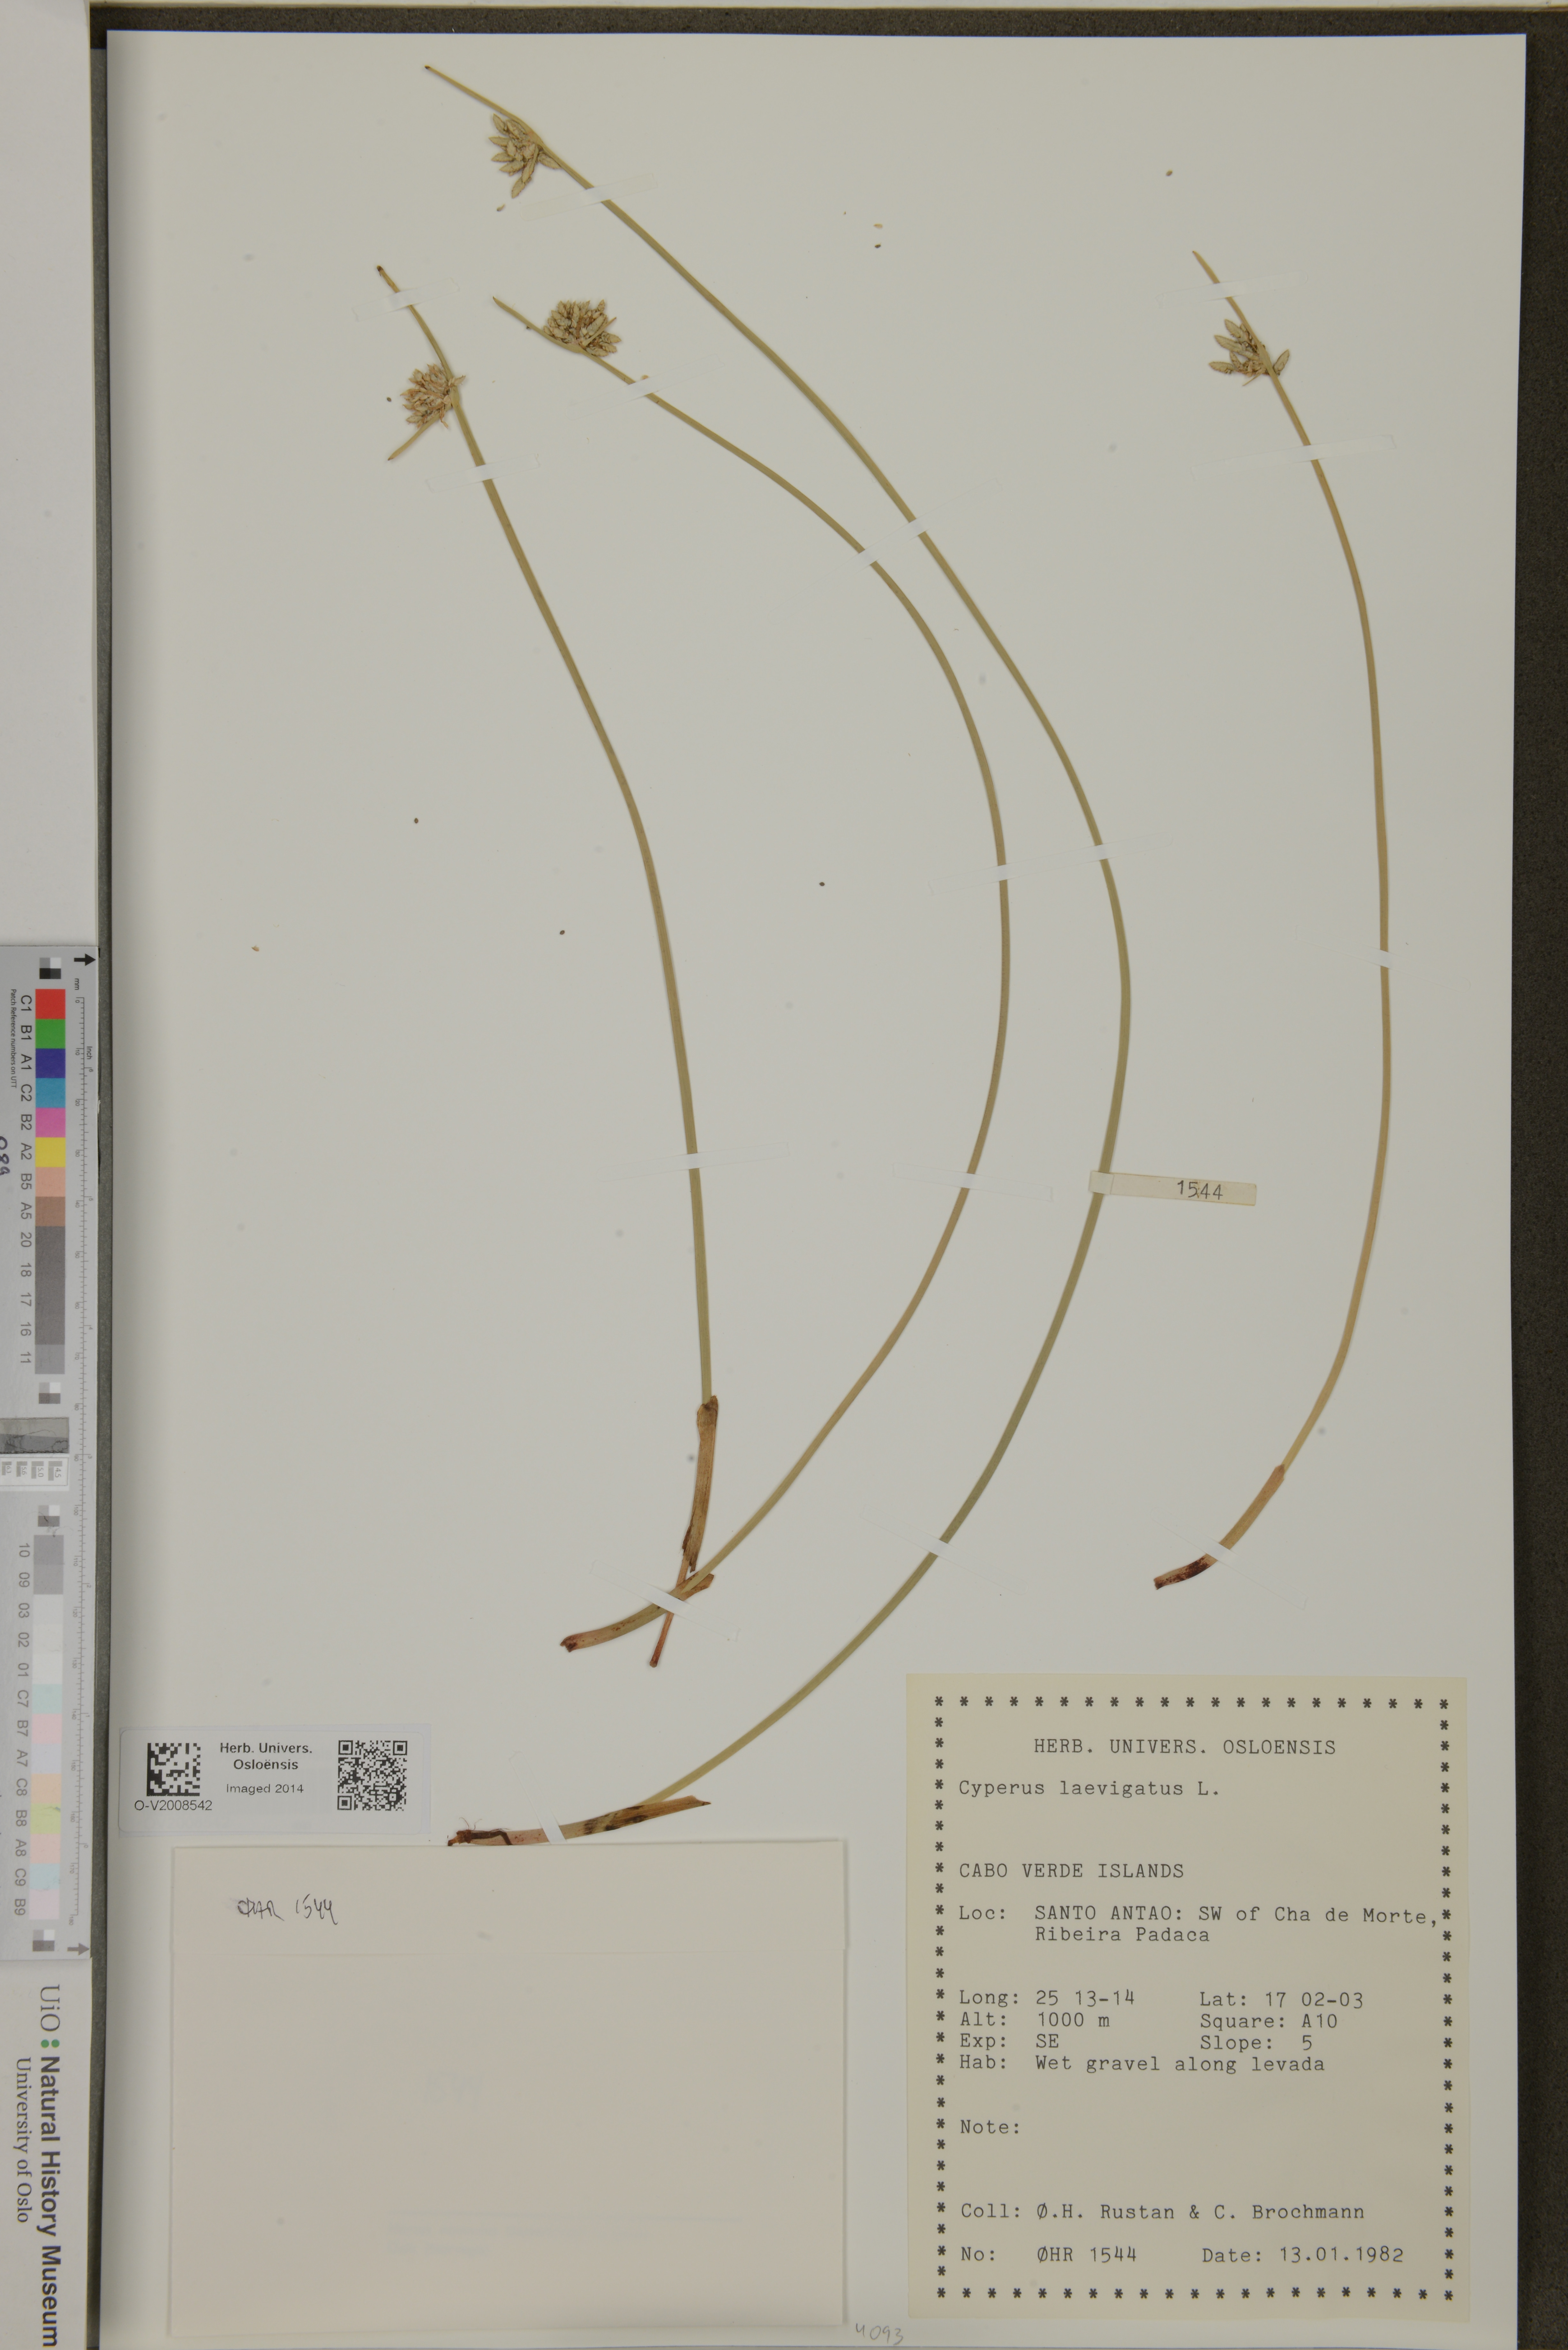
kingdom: Plantae
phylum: Tracheophyta
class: Liliopsida
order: Poales
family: Cyperaceae
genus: Cyperus
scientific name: Cyperus laevigatus
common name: Smooth flat sedge
